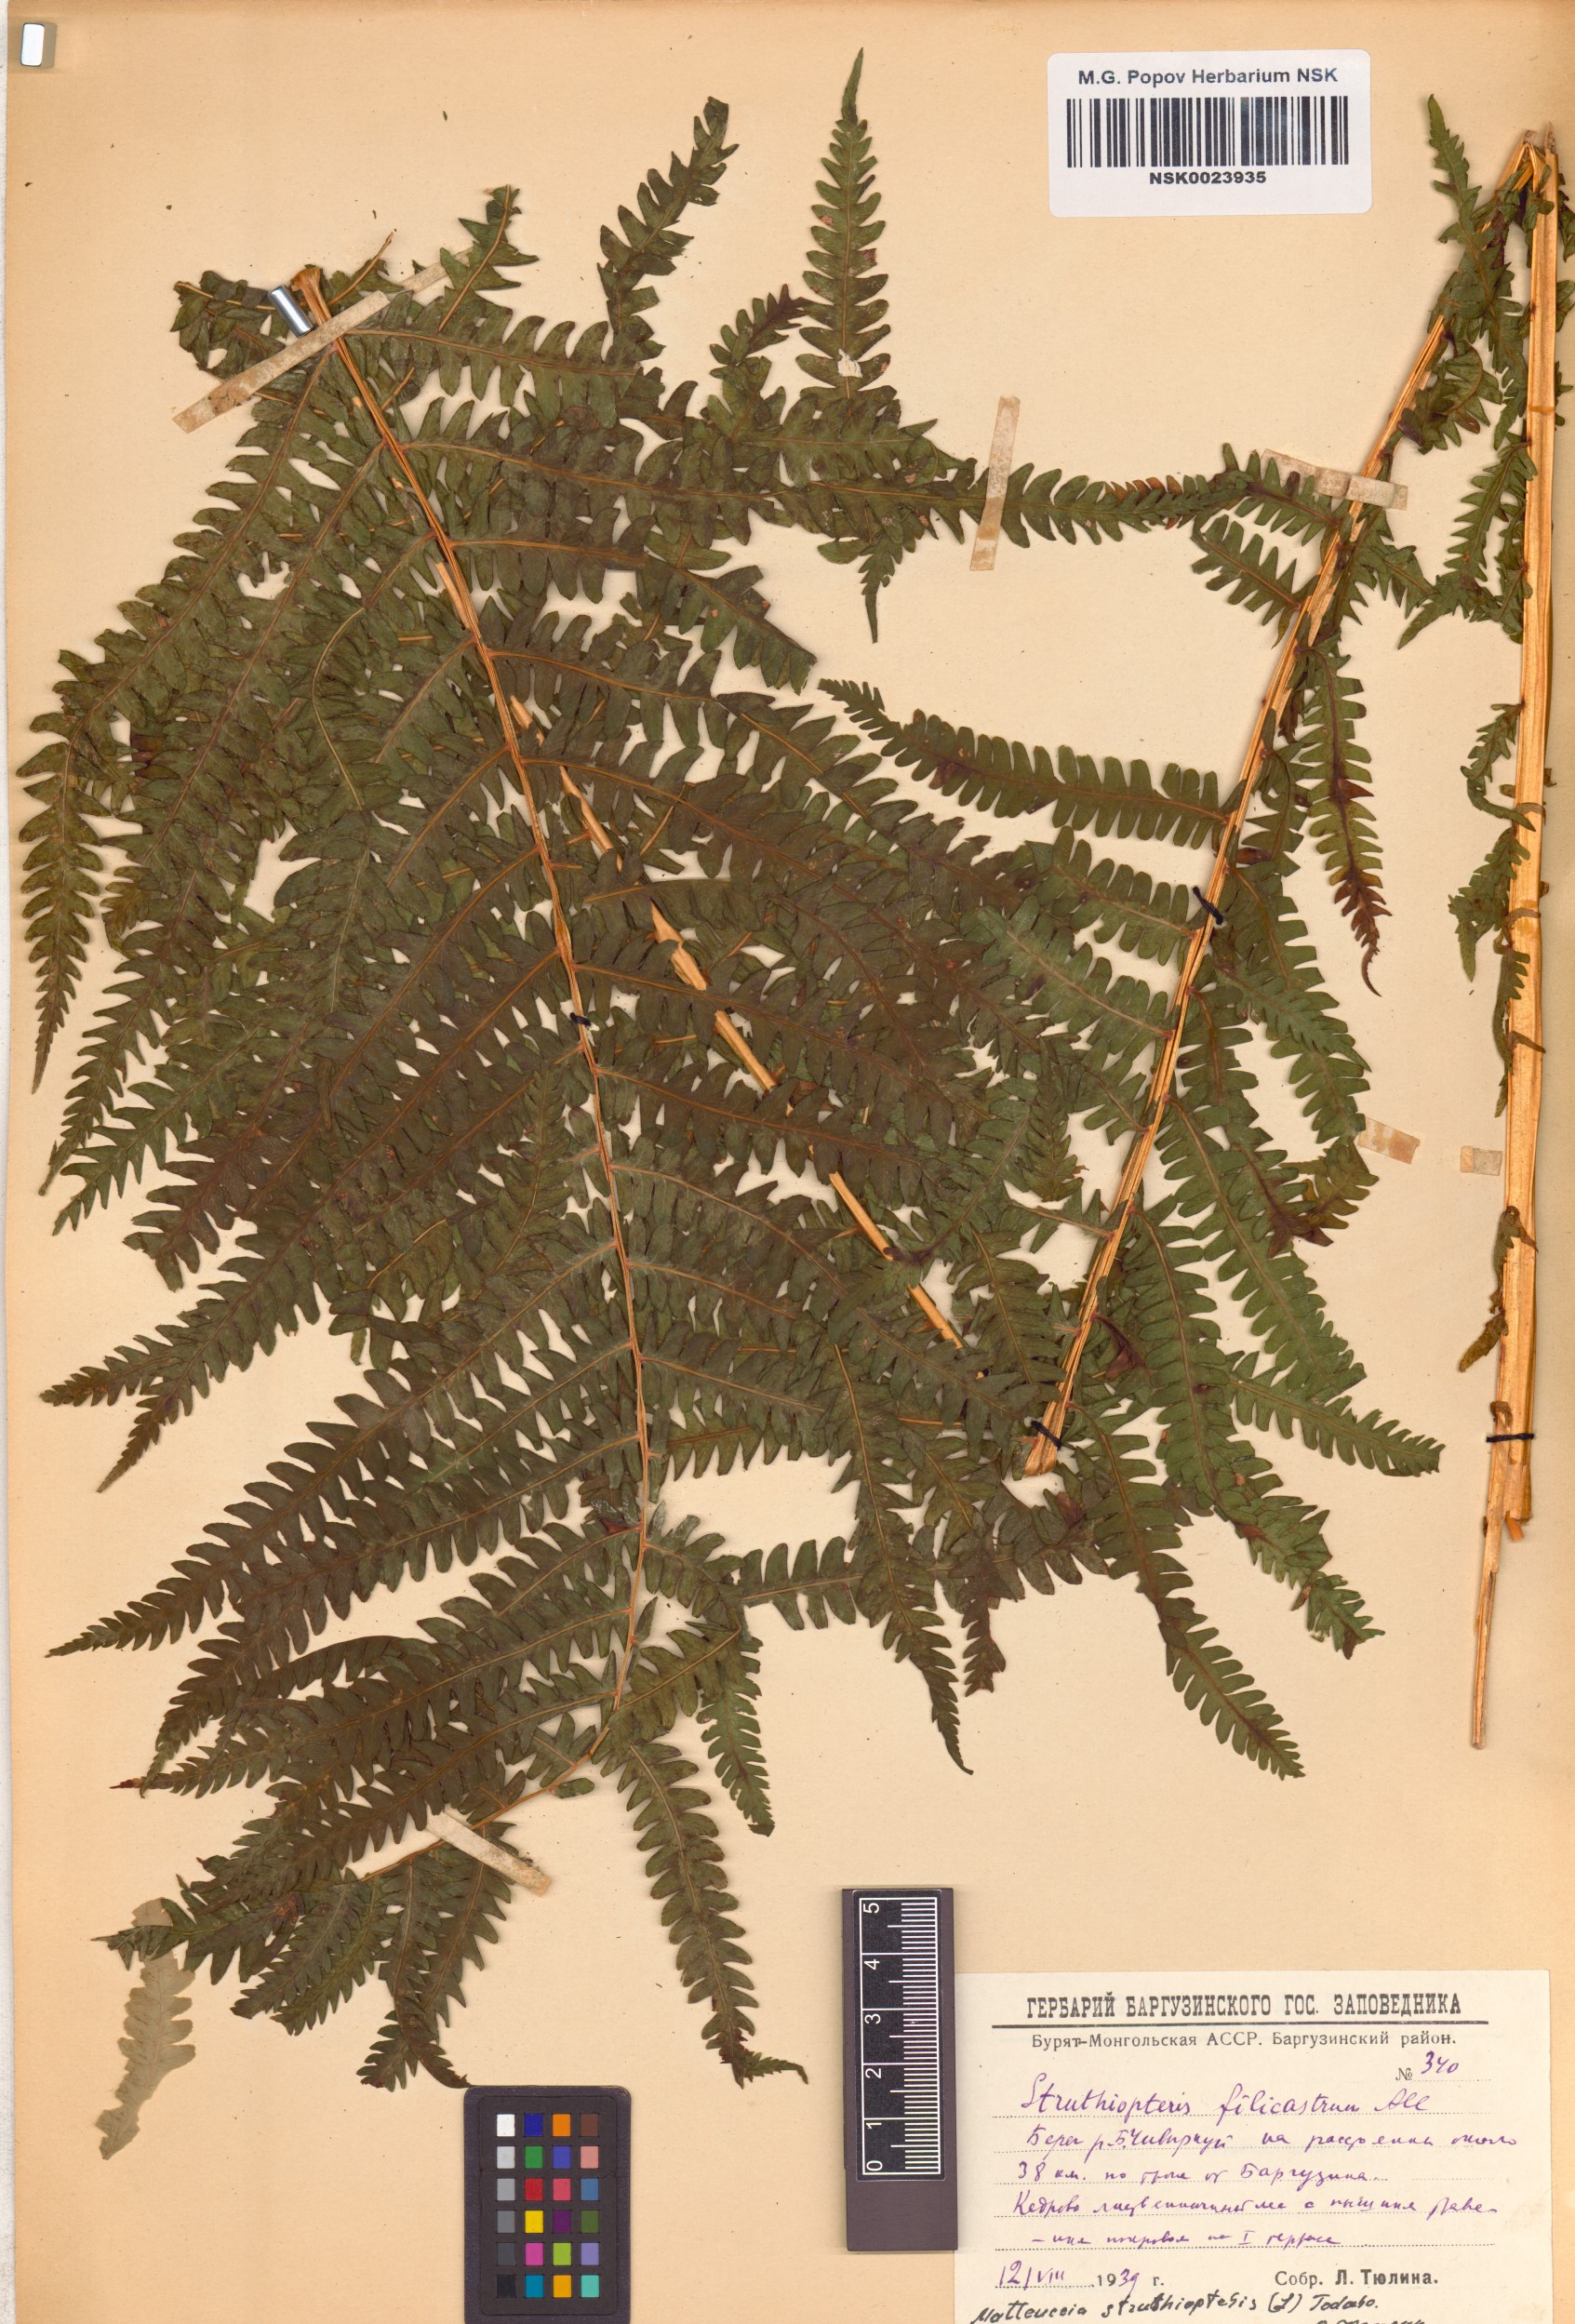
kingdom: Plantae
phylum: Tracheophyta
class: Polypodiopsida
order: Polypodiales
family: Onocleaceae
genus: Matteuccia
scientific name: Matteuccia struthiopteris
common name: Ostrich fern
